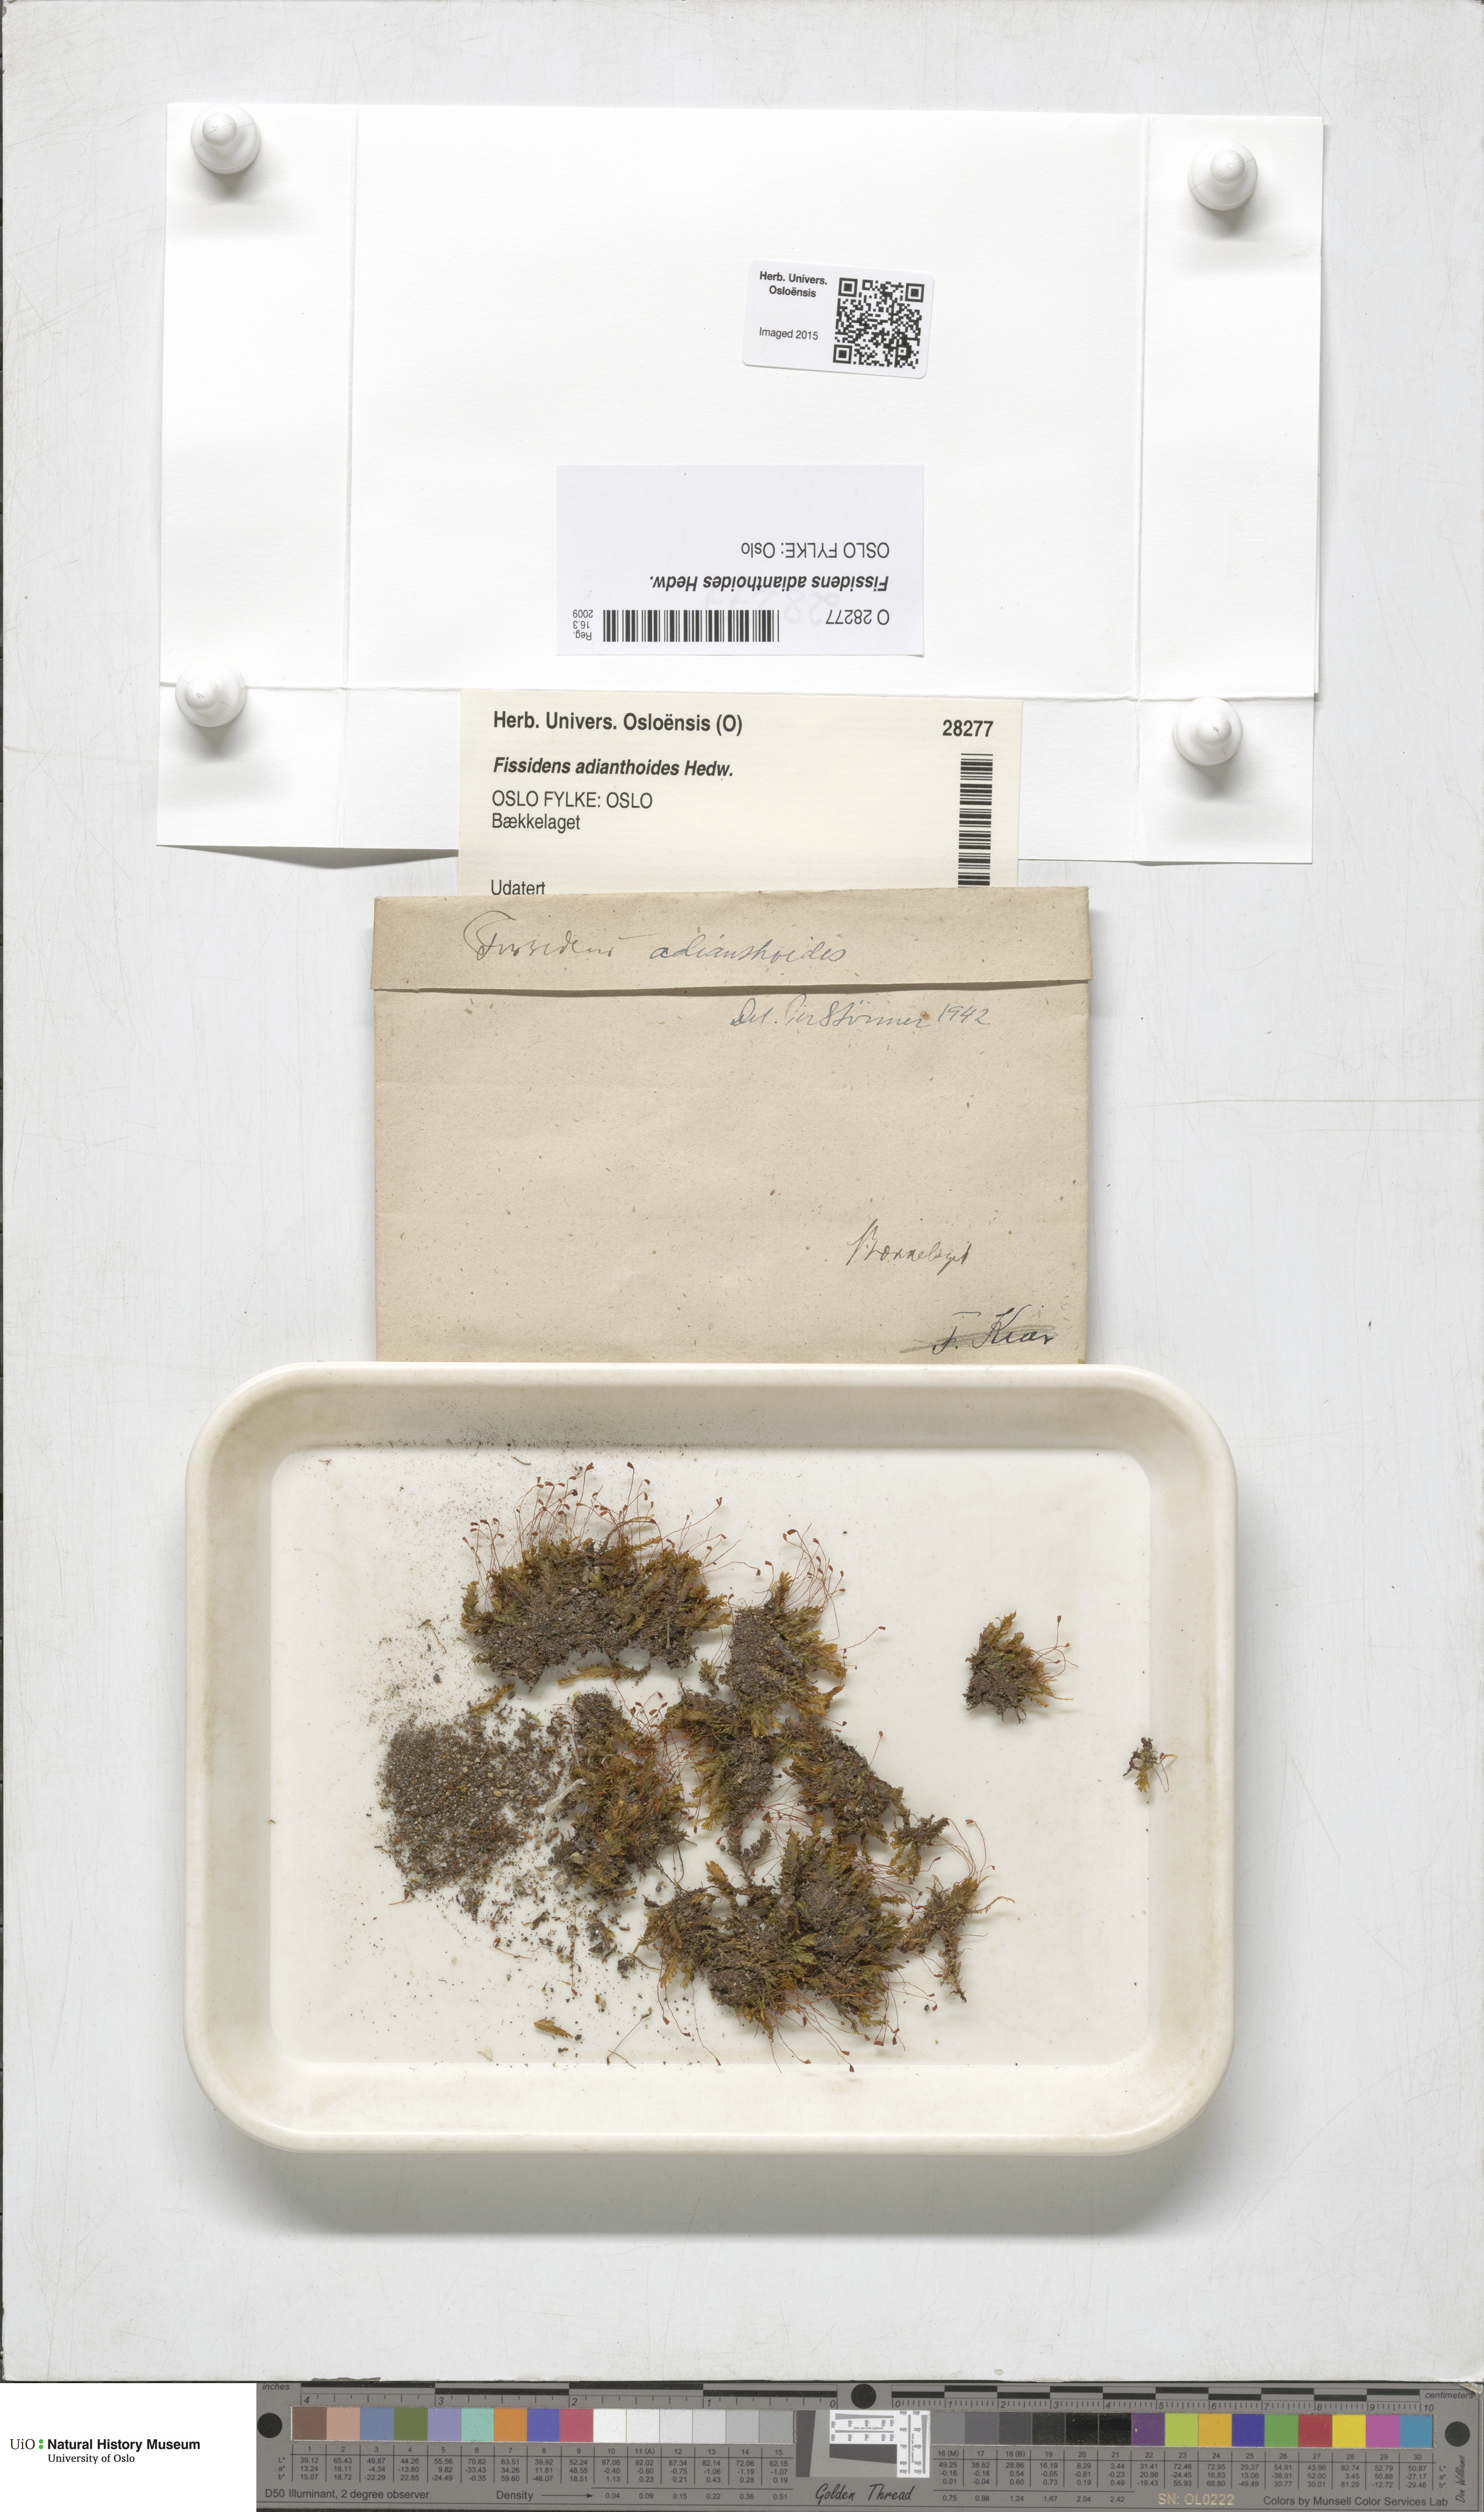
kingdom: Plantae
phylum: Bryophyta
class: Bryopsida
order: Dicranales
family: Fissidentaceae
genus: Fissidens
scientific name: Fissidens adianthoides
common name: Maidenhair pocket moss
